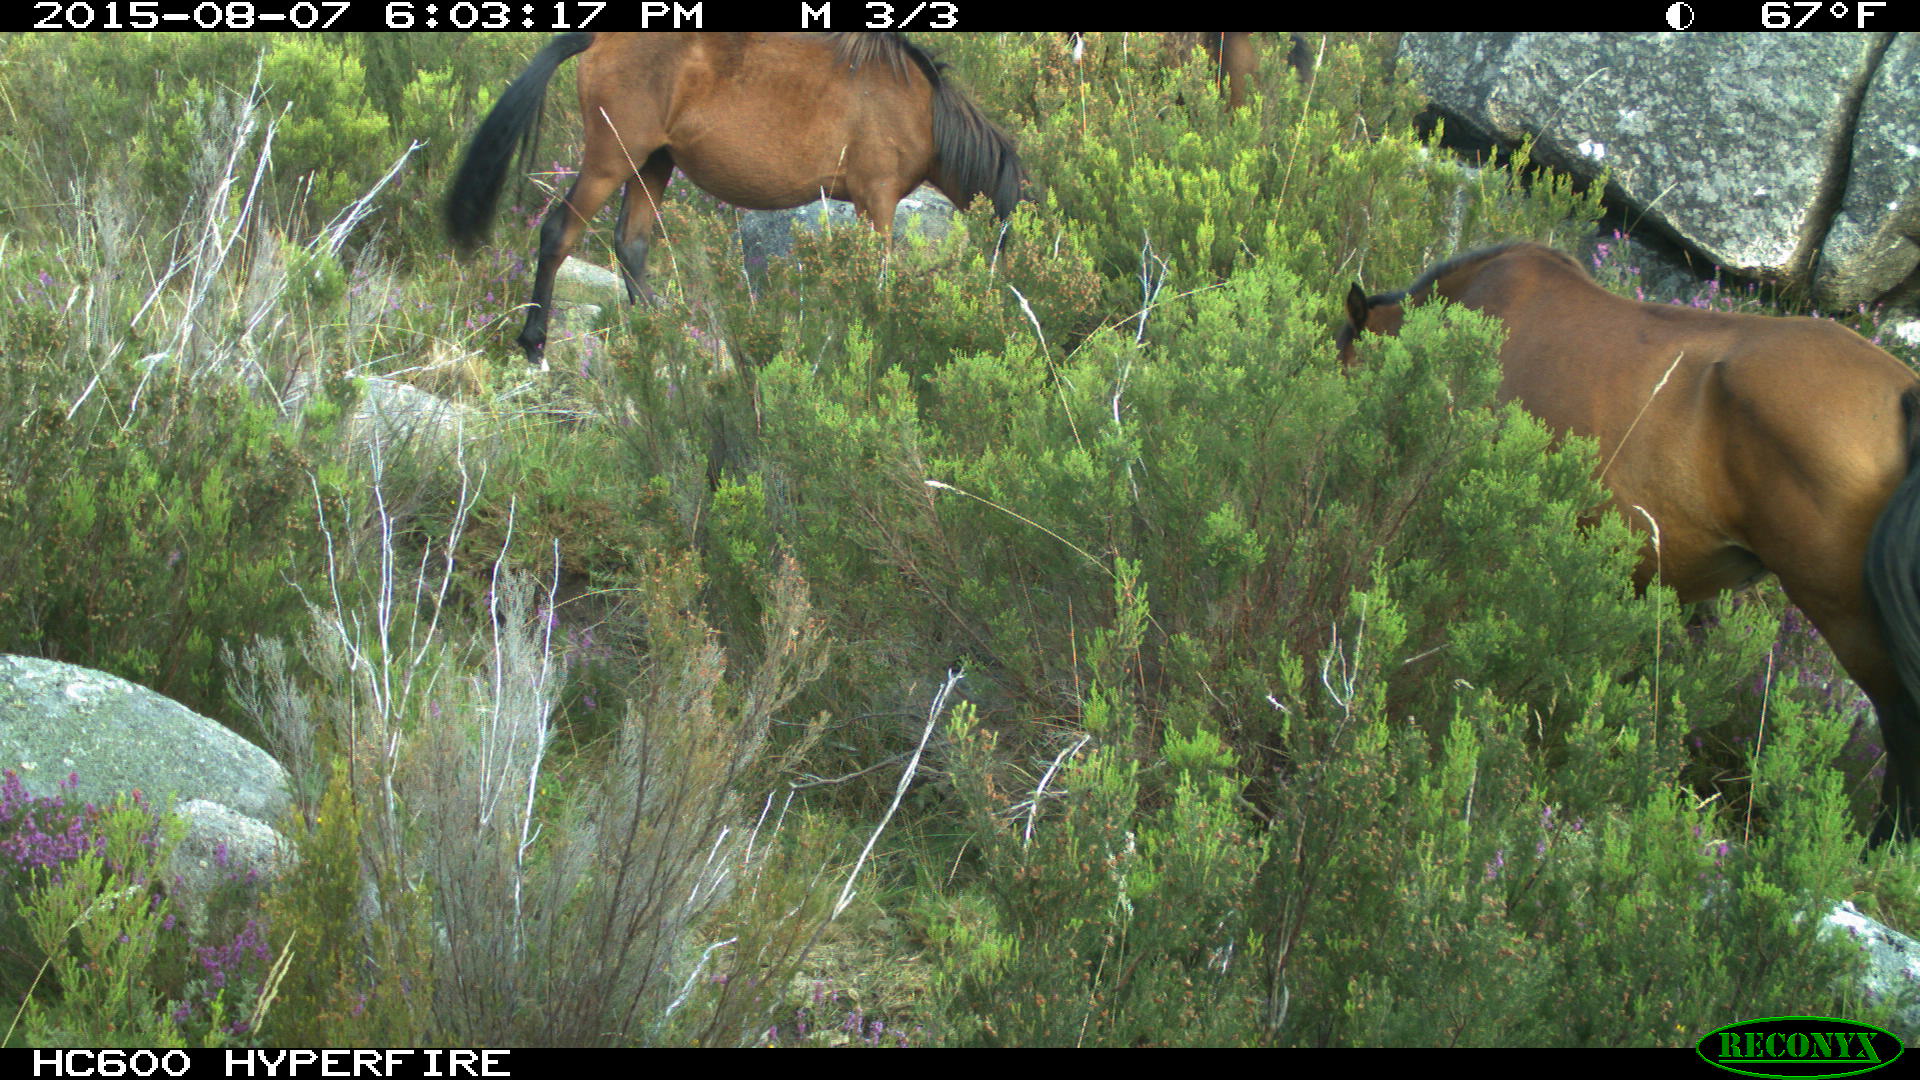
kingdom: Animalia
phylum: Chordata
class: Mammalia
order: Perissodactyla
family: Equidae
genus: Equus
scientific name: Equus caballus
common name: Horse
